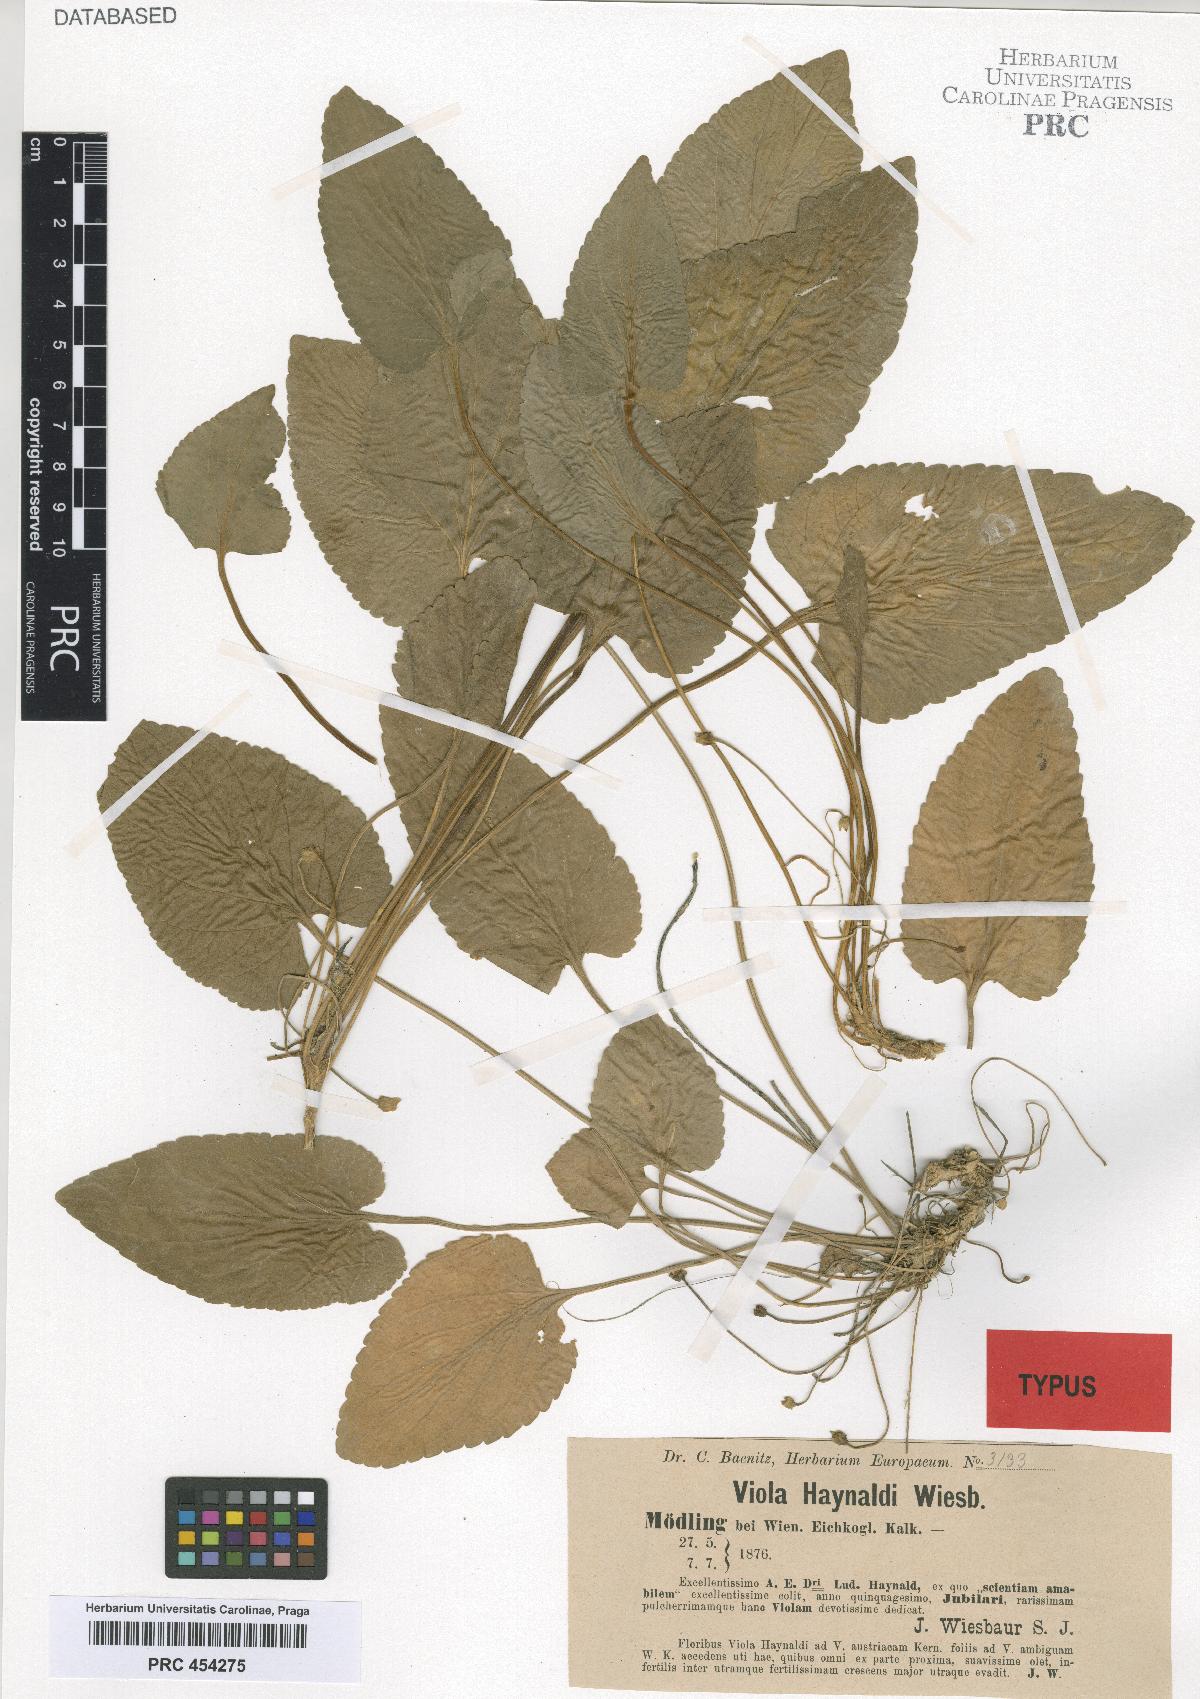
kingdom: Plantae
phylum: Tracheophyta
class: Magnoliopsida
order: Malpighiales
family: Violaceae
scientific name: Violaceae
